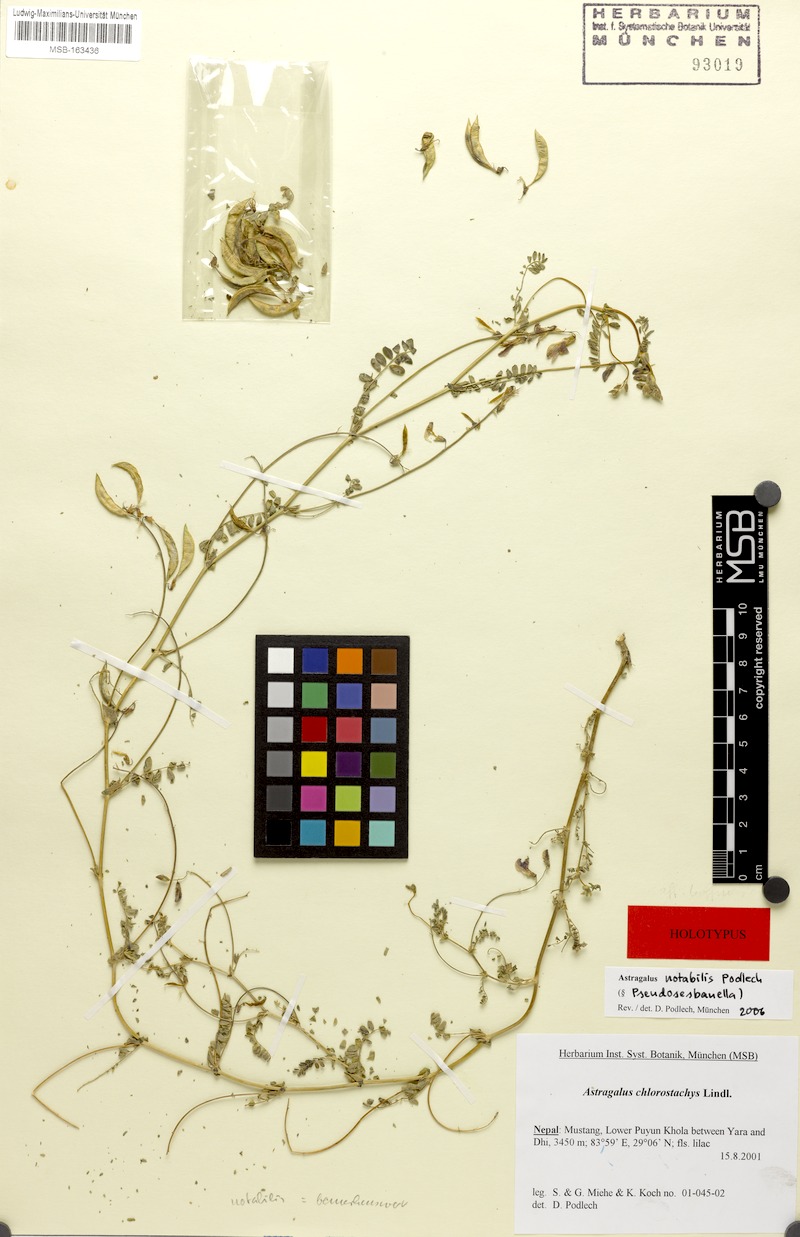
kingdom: Plantae
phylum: Tracheophyta
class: Magnoliopsida
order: Fabales
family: Fabaceae
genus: Astragalus
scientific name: Astragalus notabilis
